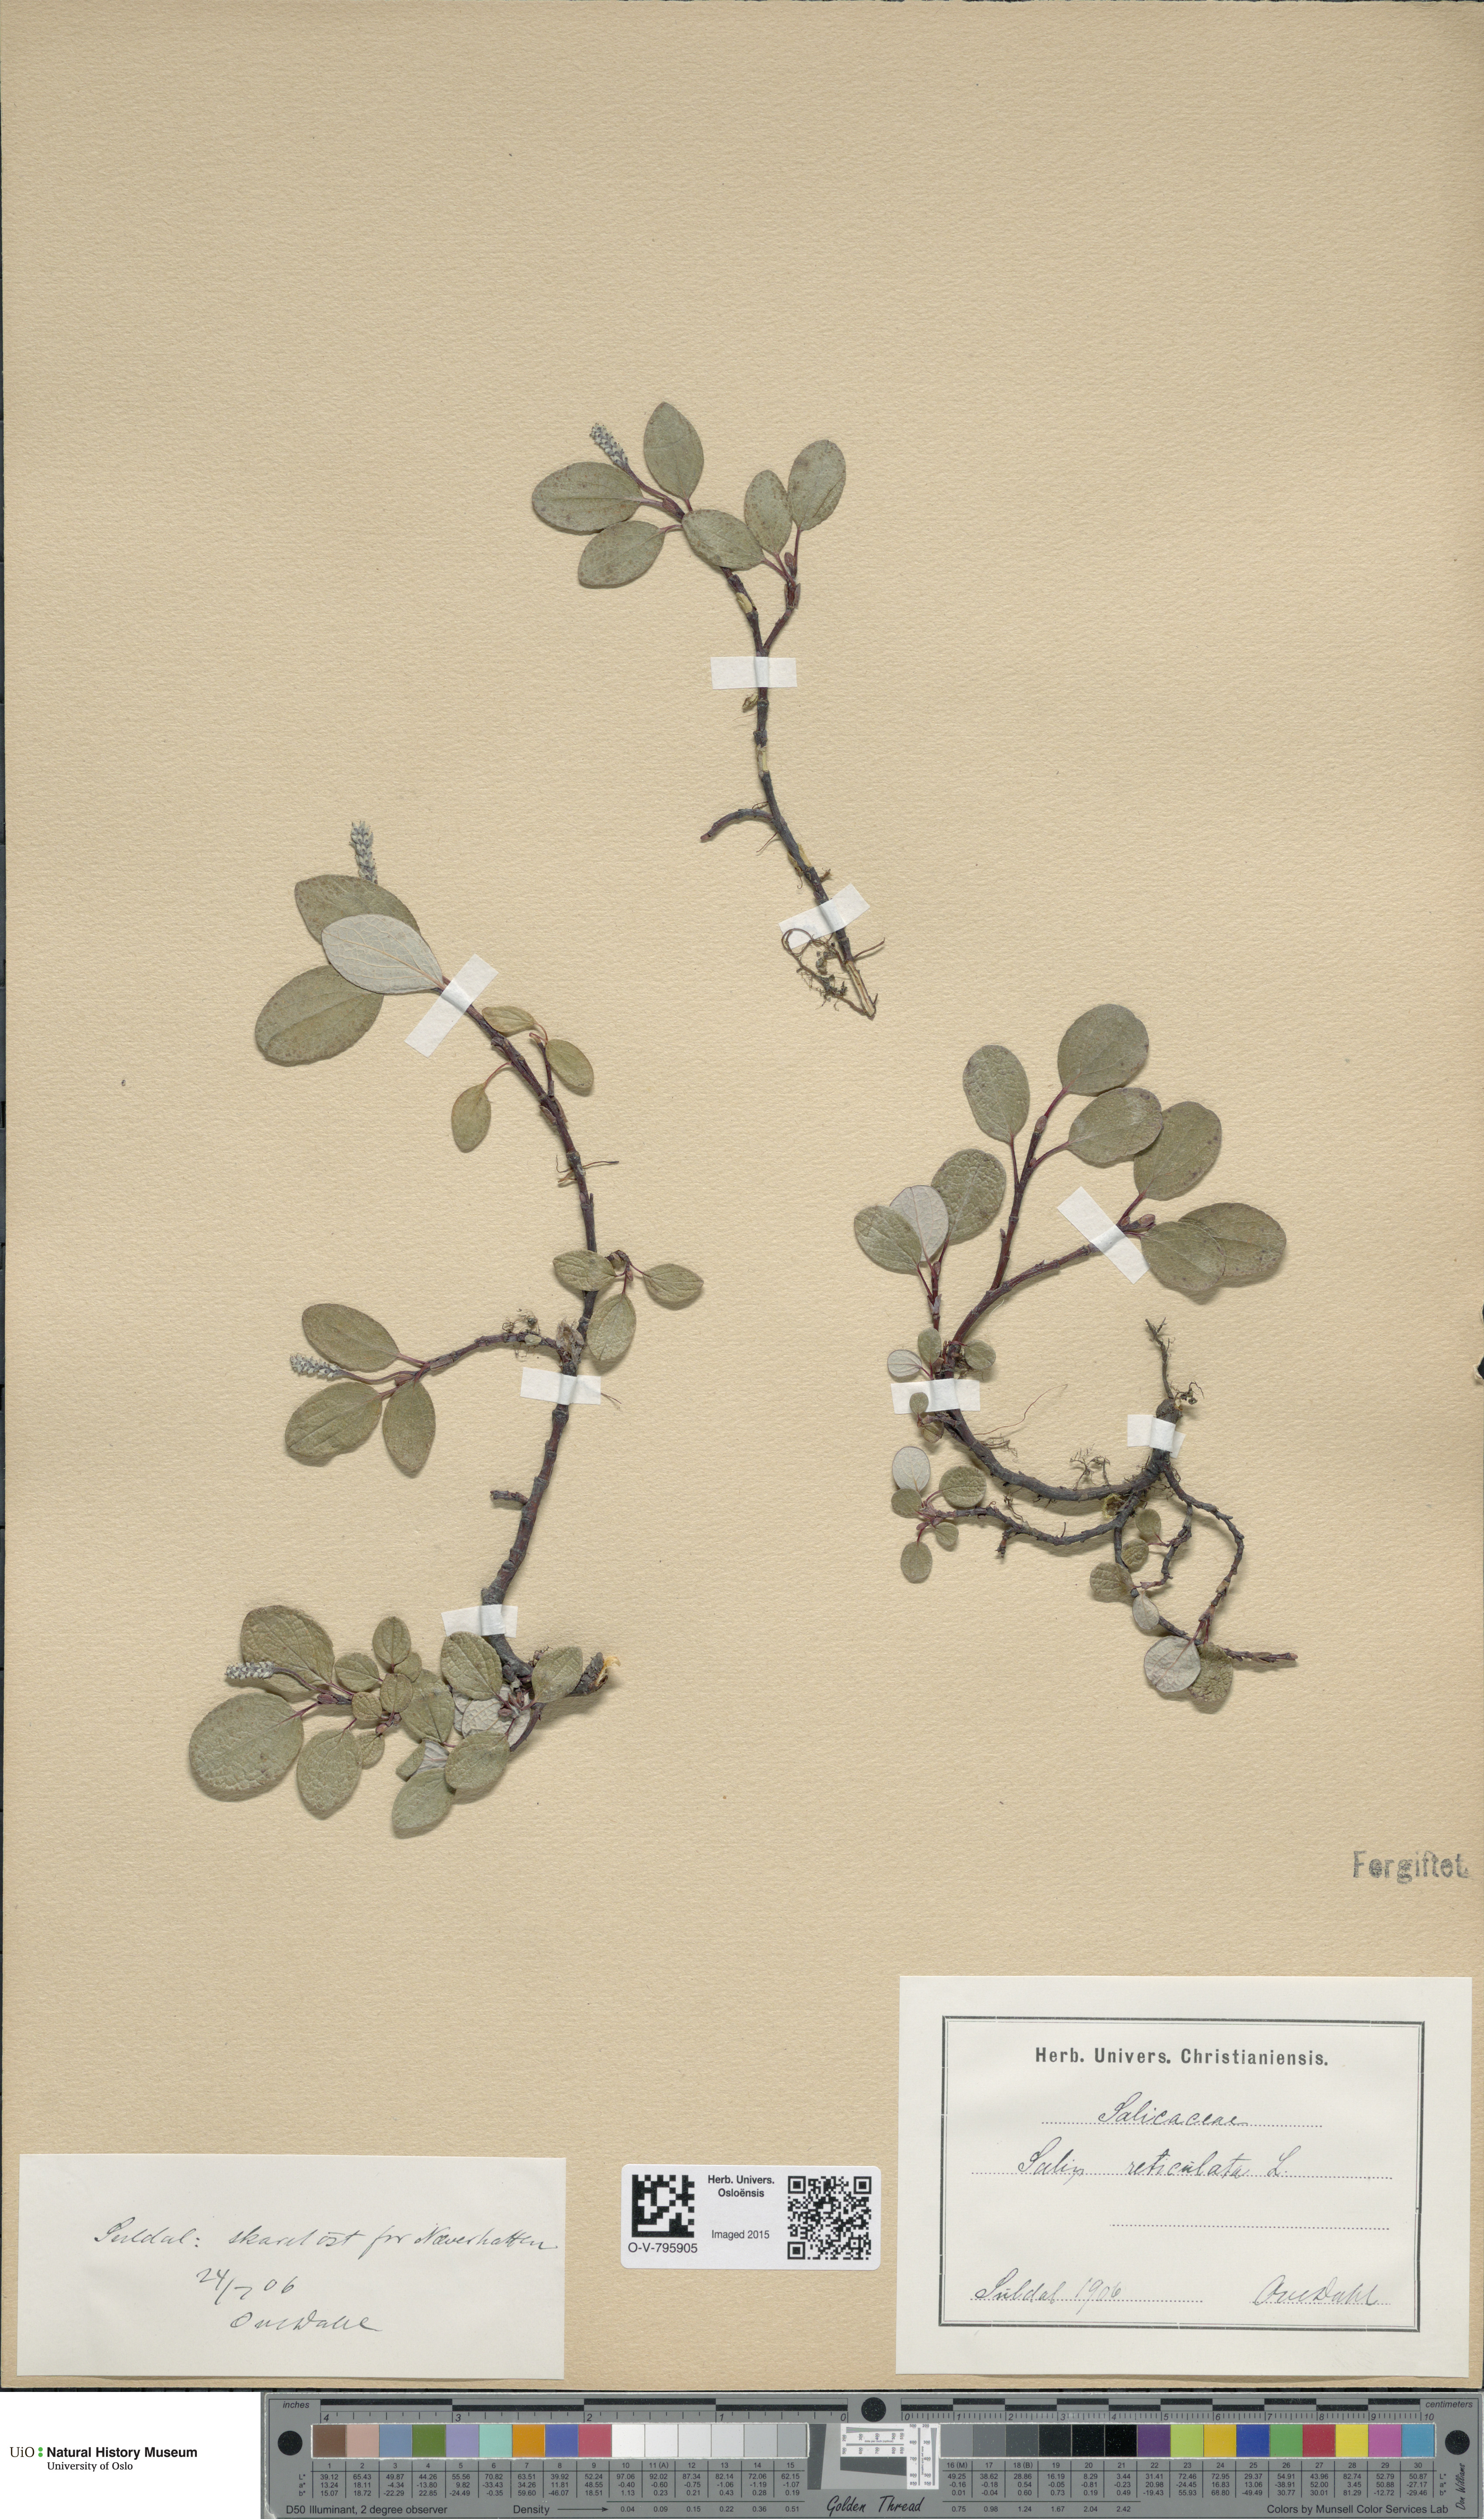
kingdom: Plantae
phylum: Tracheophyta
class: Magnoliopsida
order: Malpighiales
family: Salicaceae
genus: Salix
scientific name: Salix reticulata
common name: Net-leaved willow
